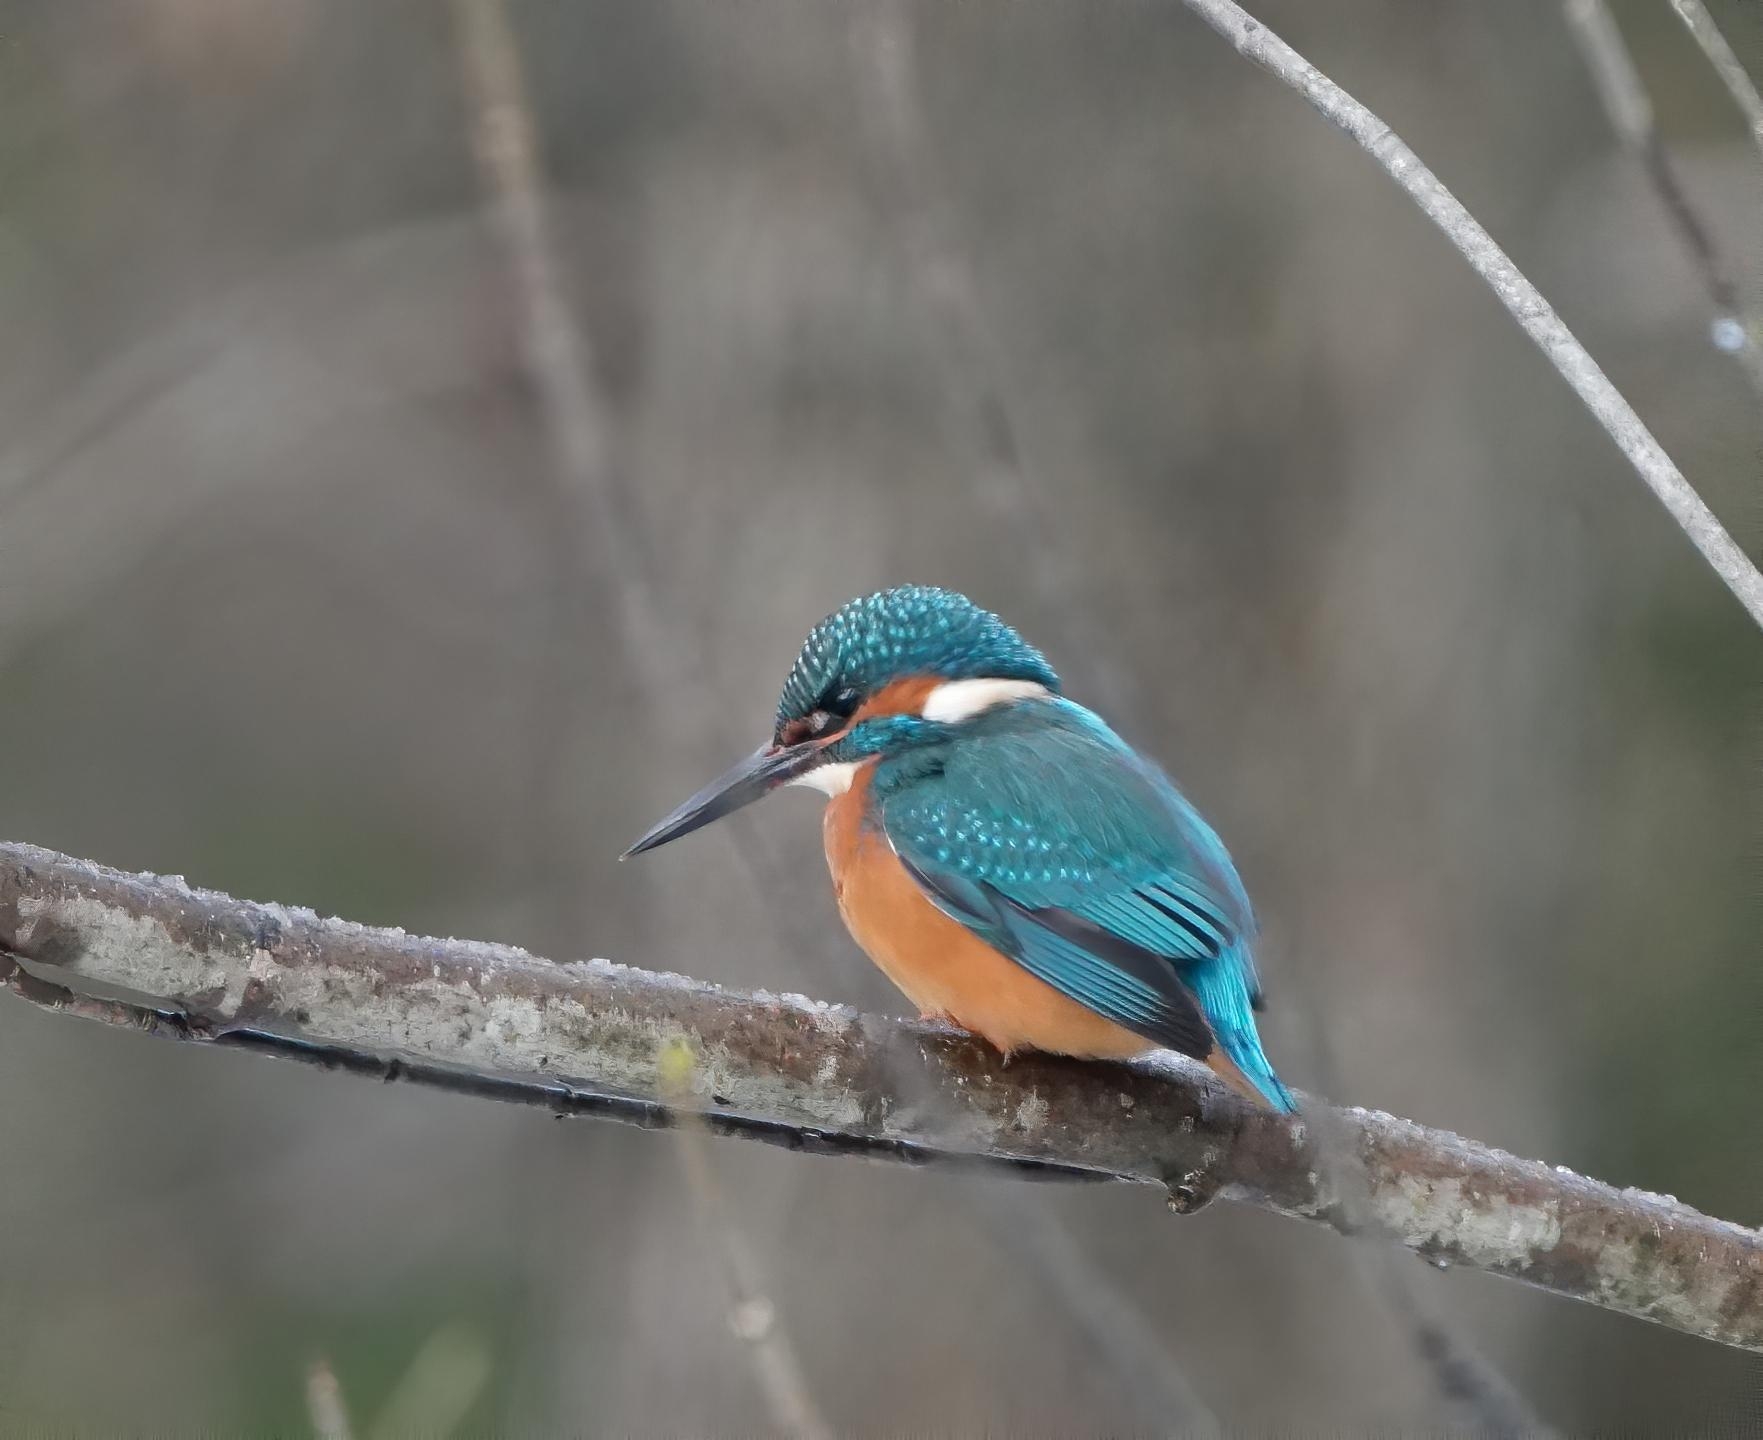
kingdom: Animalia
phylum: Chordata
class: Aves
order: Coraciiformes
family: Alcedinidae
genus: Alcedo
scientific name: Alcedo atthis
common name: Isfugl
